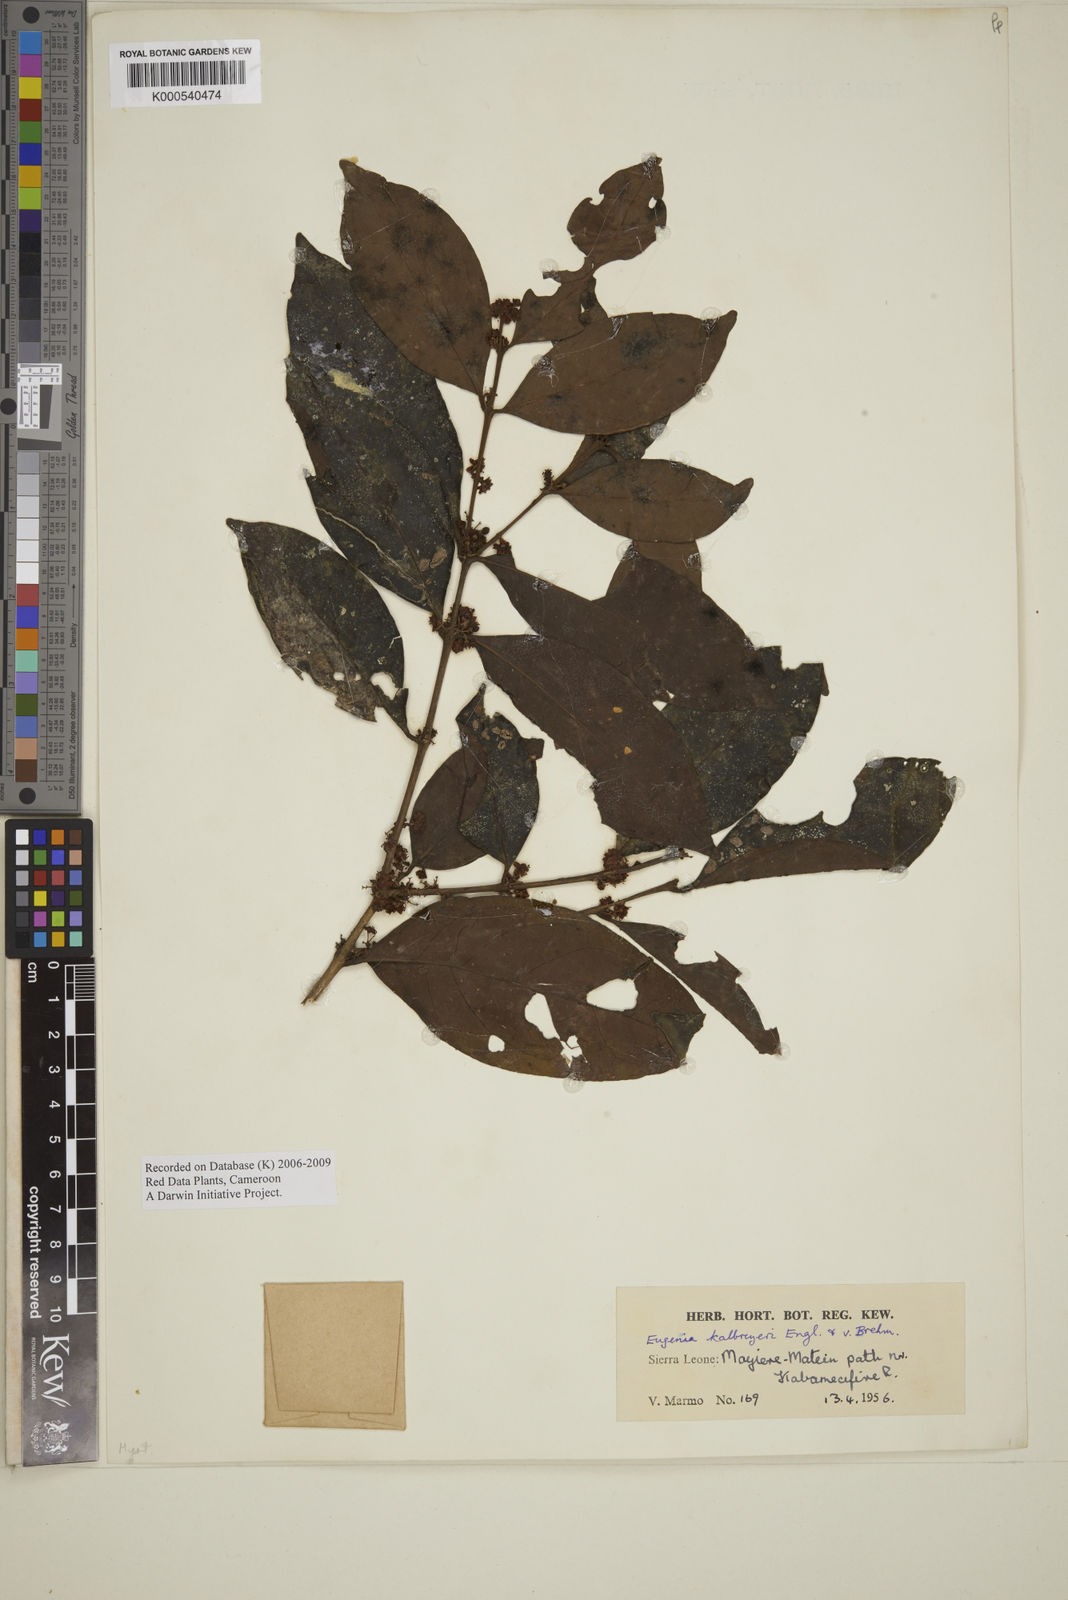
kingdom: Plantae
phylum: Tracheophyta
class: Magnoliopsida
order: Myrtales
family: Myrtaceae
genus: Eugenia
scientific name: Eugenia kalbreyeri
